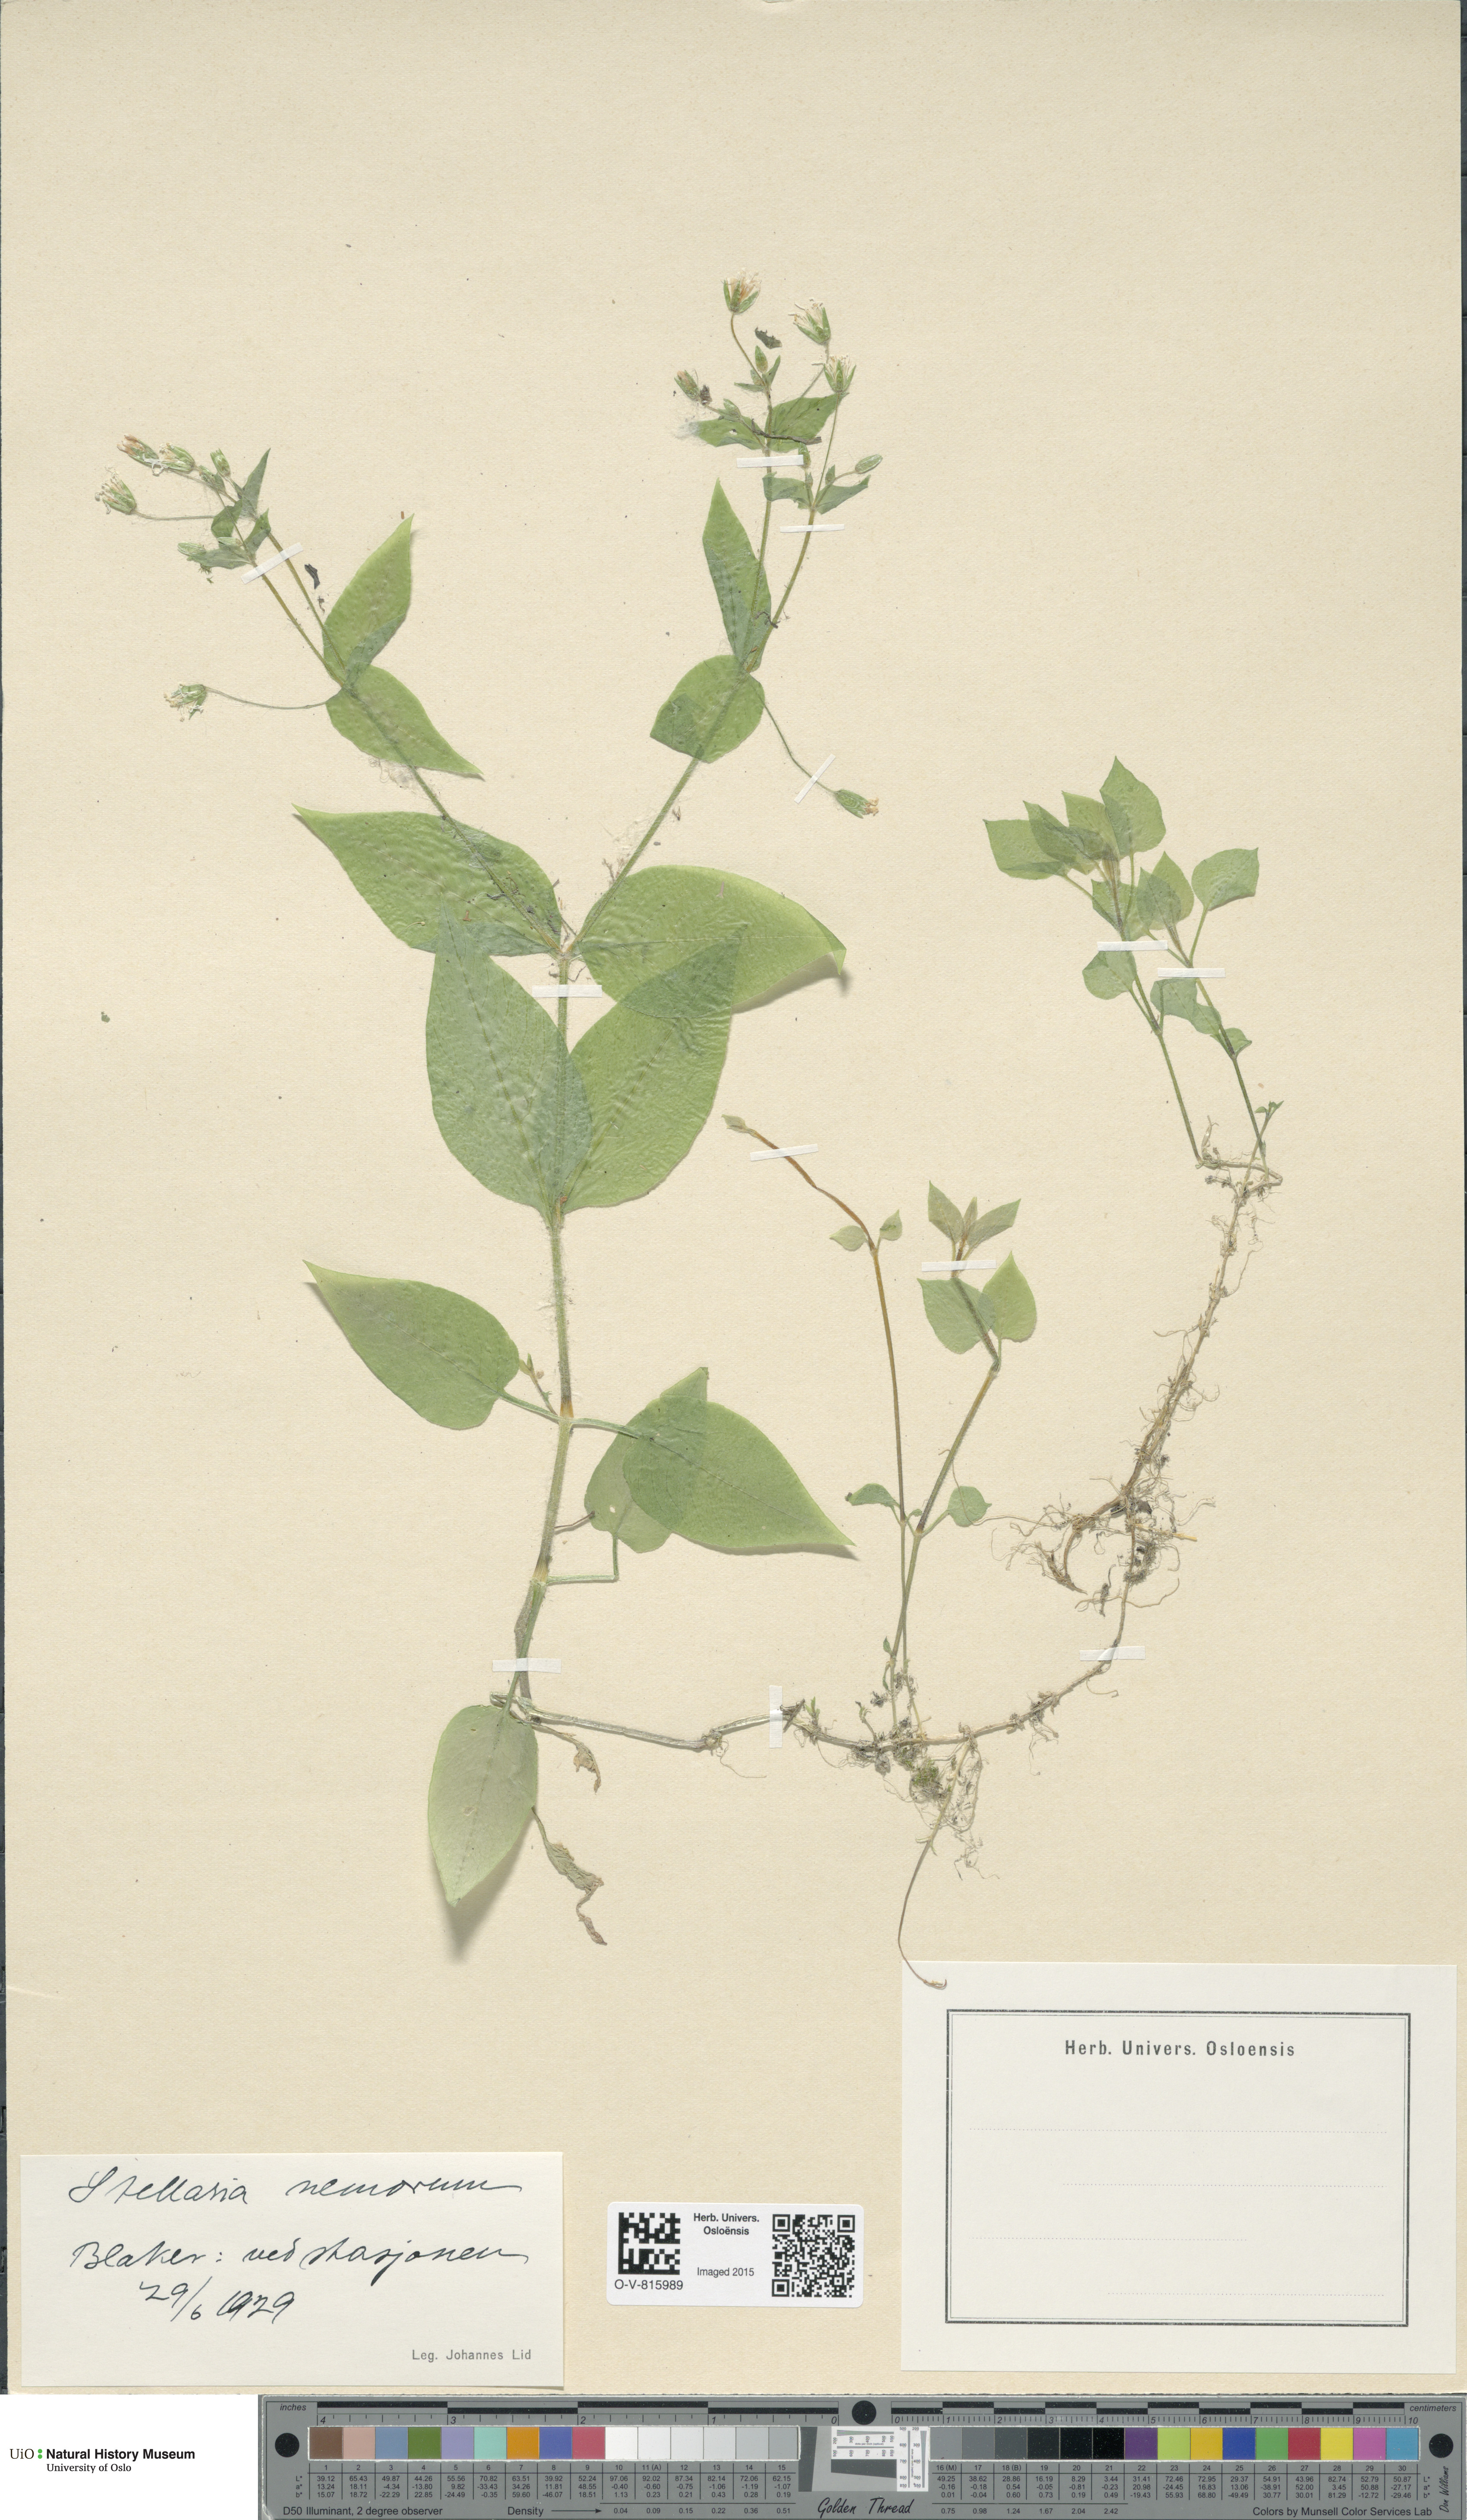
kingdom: Plantae
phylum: Tracheophyta
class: Magnoliopsida
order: Caryophyllales
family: Caryophyllaceae
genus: Stellaria
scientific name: Stellaria nemorum
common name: Wood stitchwort
